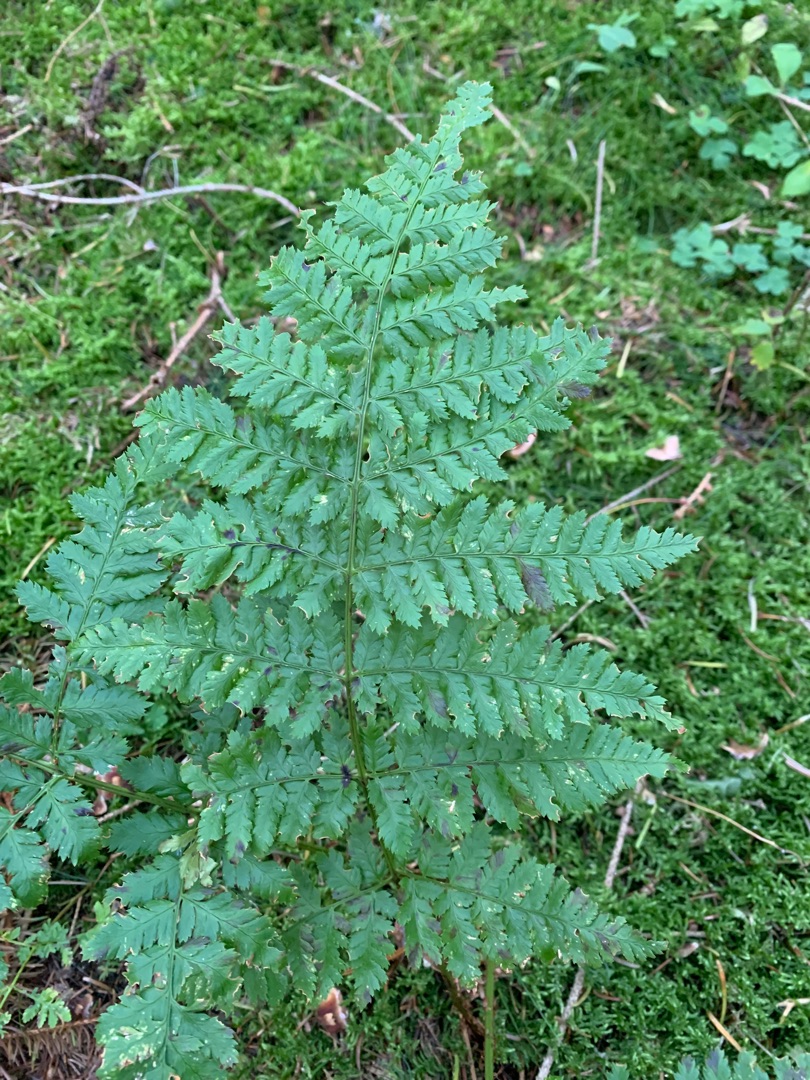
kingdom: Plantae
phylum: Tracheophyta
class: Polypodiopsida
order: Polypodiales
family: Dryopteridaceae
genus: Dryopteris
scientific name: Dryopteris dilatata
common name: Bredbladet mangeløv
